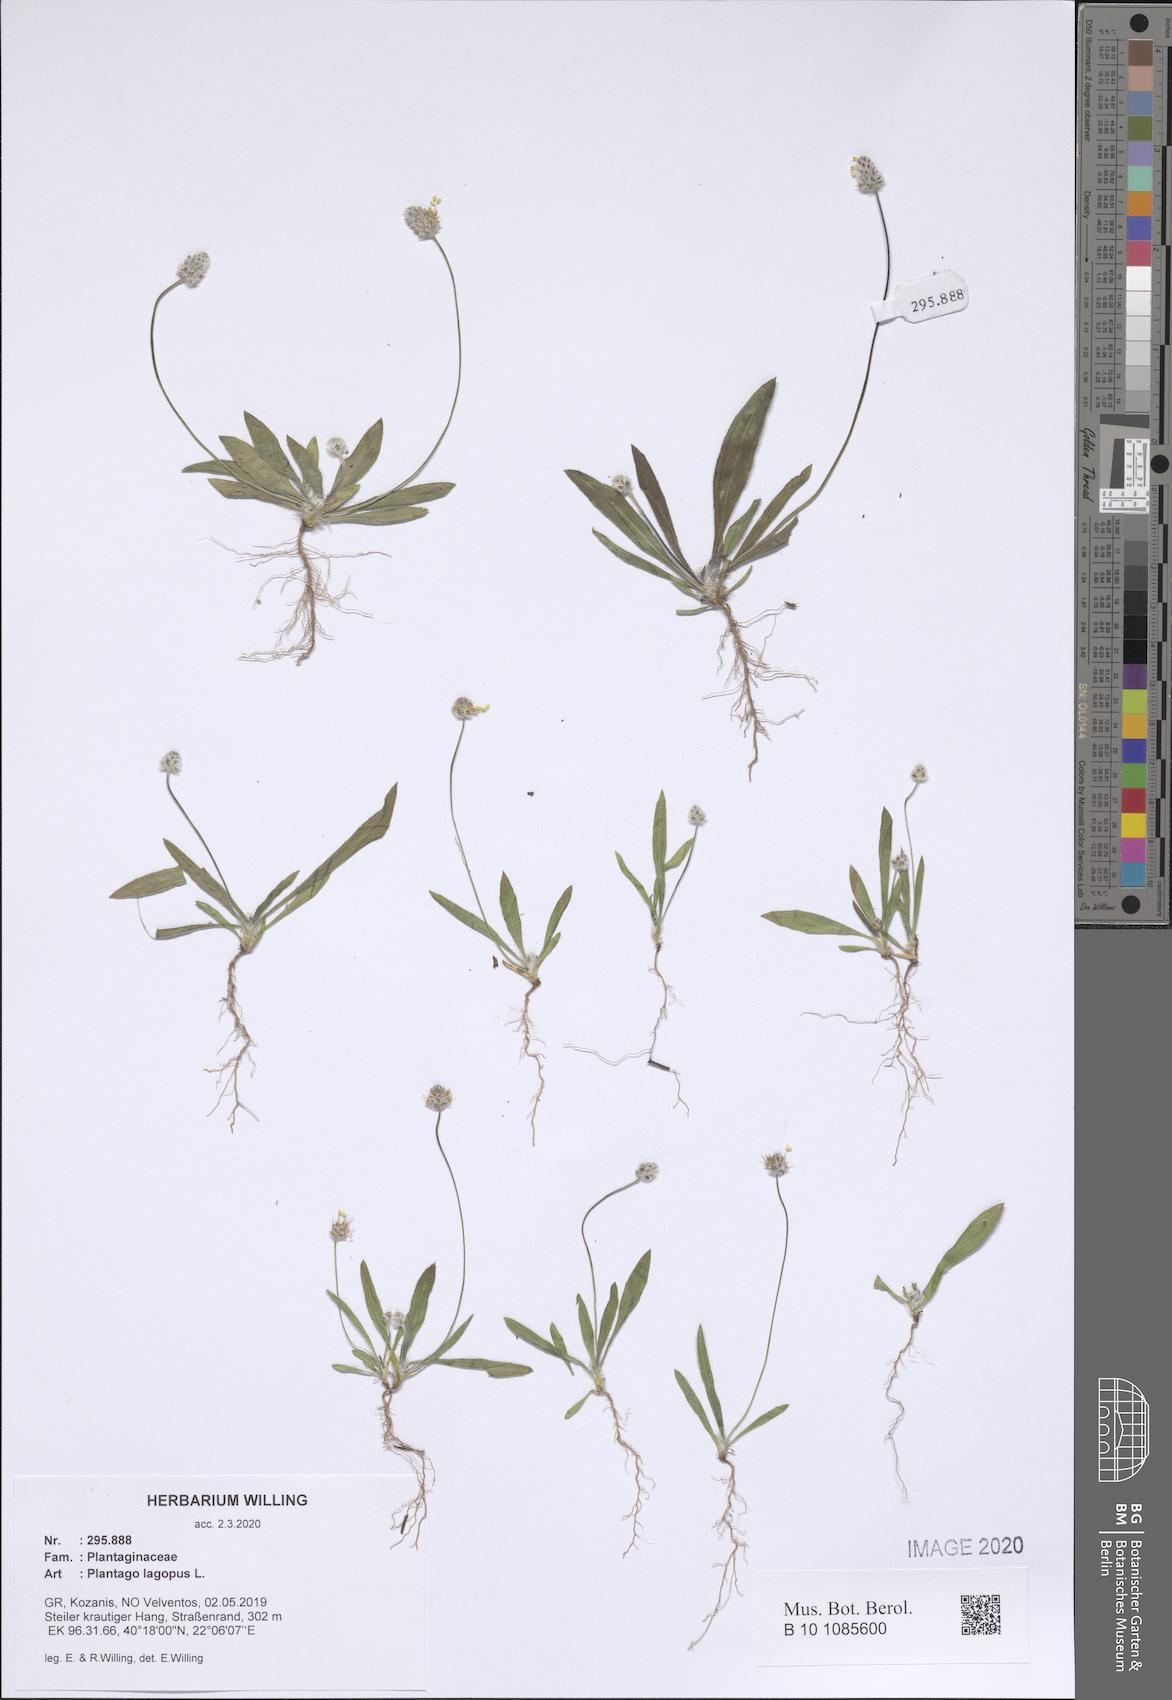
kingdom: Plantae
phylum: Tracheophyta
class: Magnoliopsida
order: Lamiales
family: Plantaginaceae
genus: Plantago
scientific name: Plantago lagopus
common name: Hare-foot plantain
